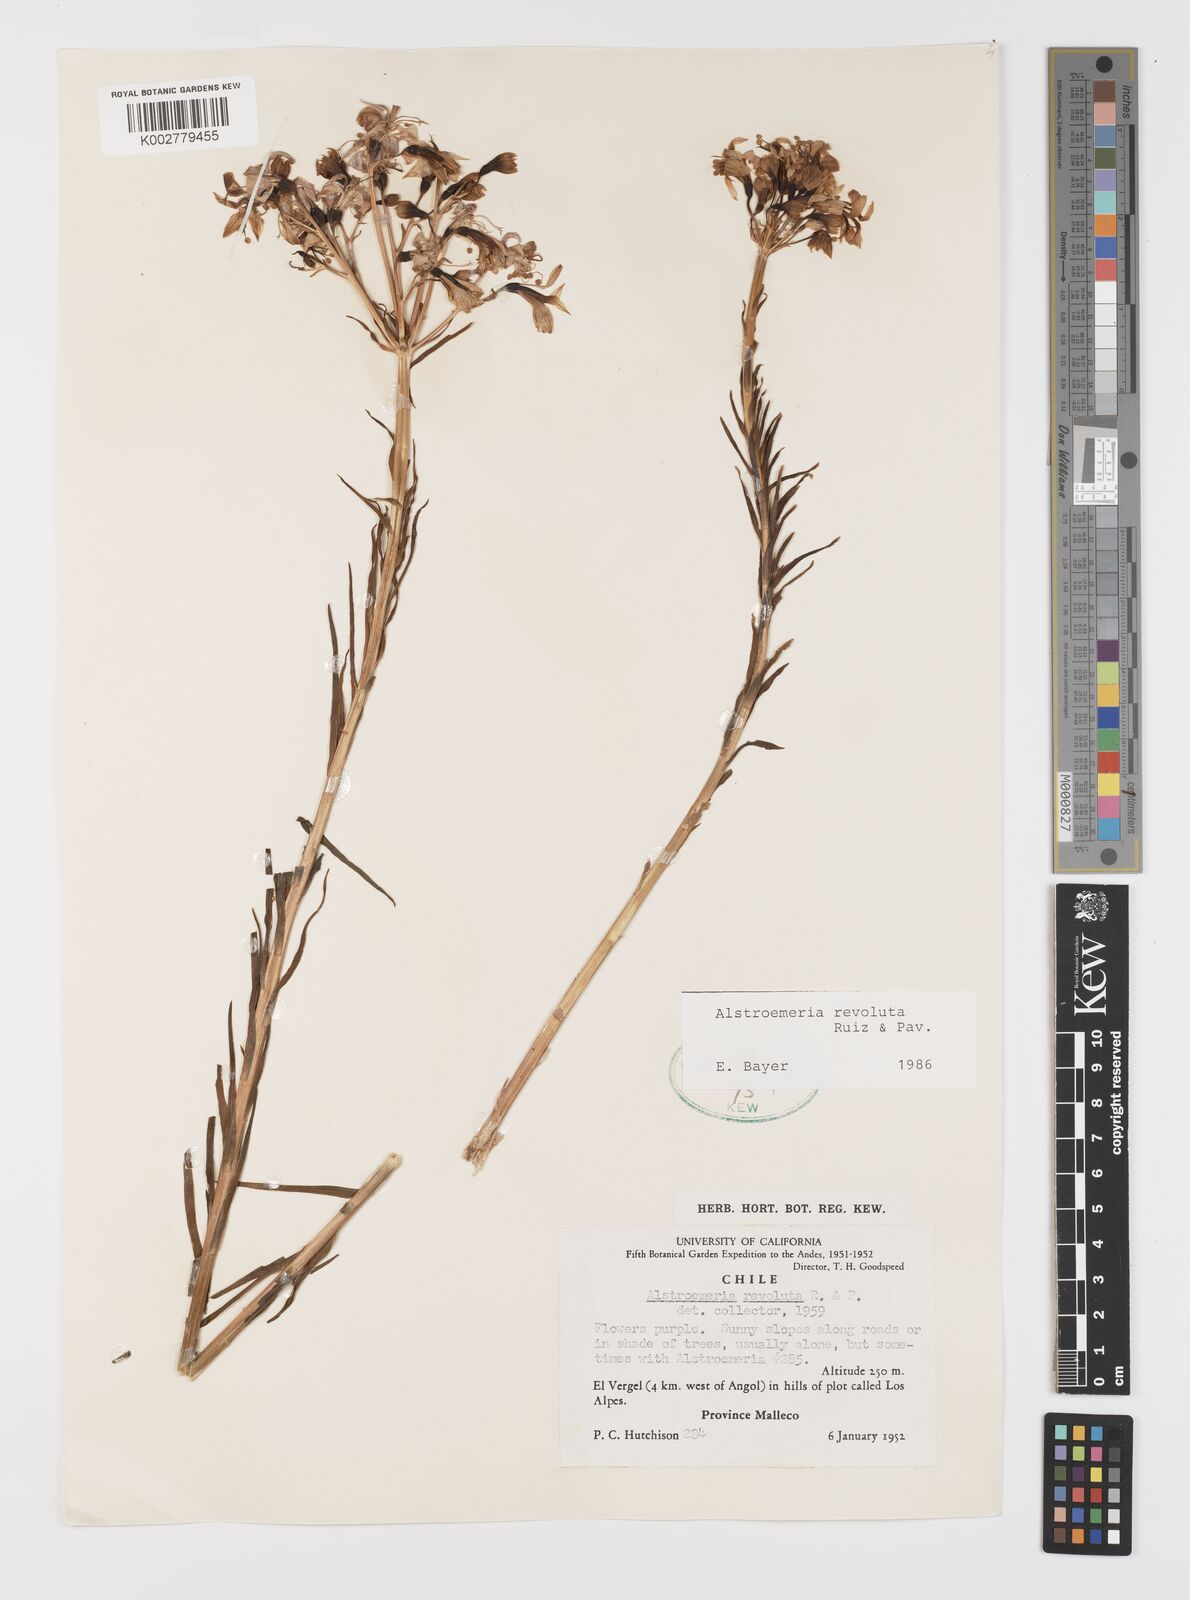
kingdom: Plantae
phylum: Tracheophyta
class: Liliopsida
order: Liliales
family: Alstroemeriaceae
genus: Alstroemeria
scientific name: Alstroemeria revoluta
